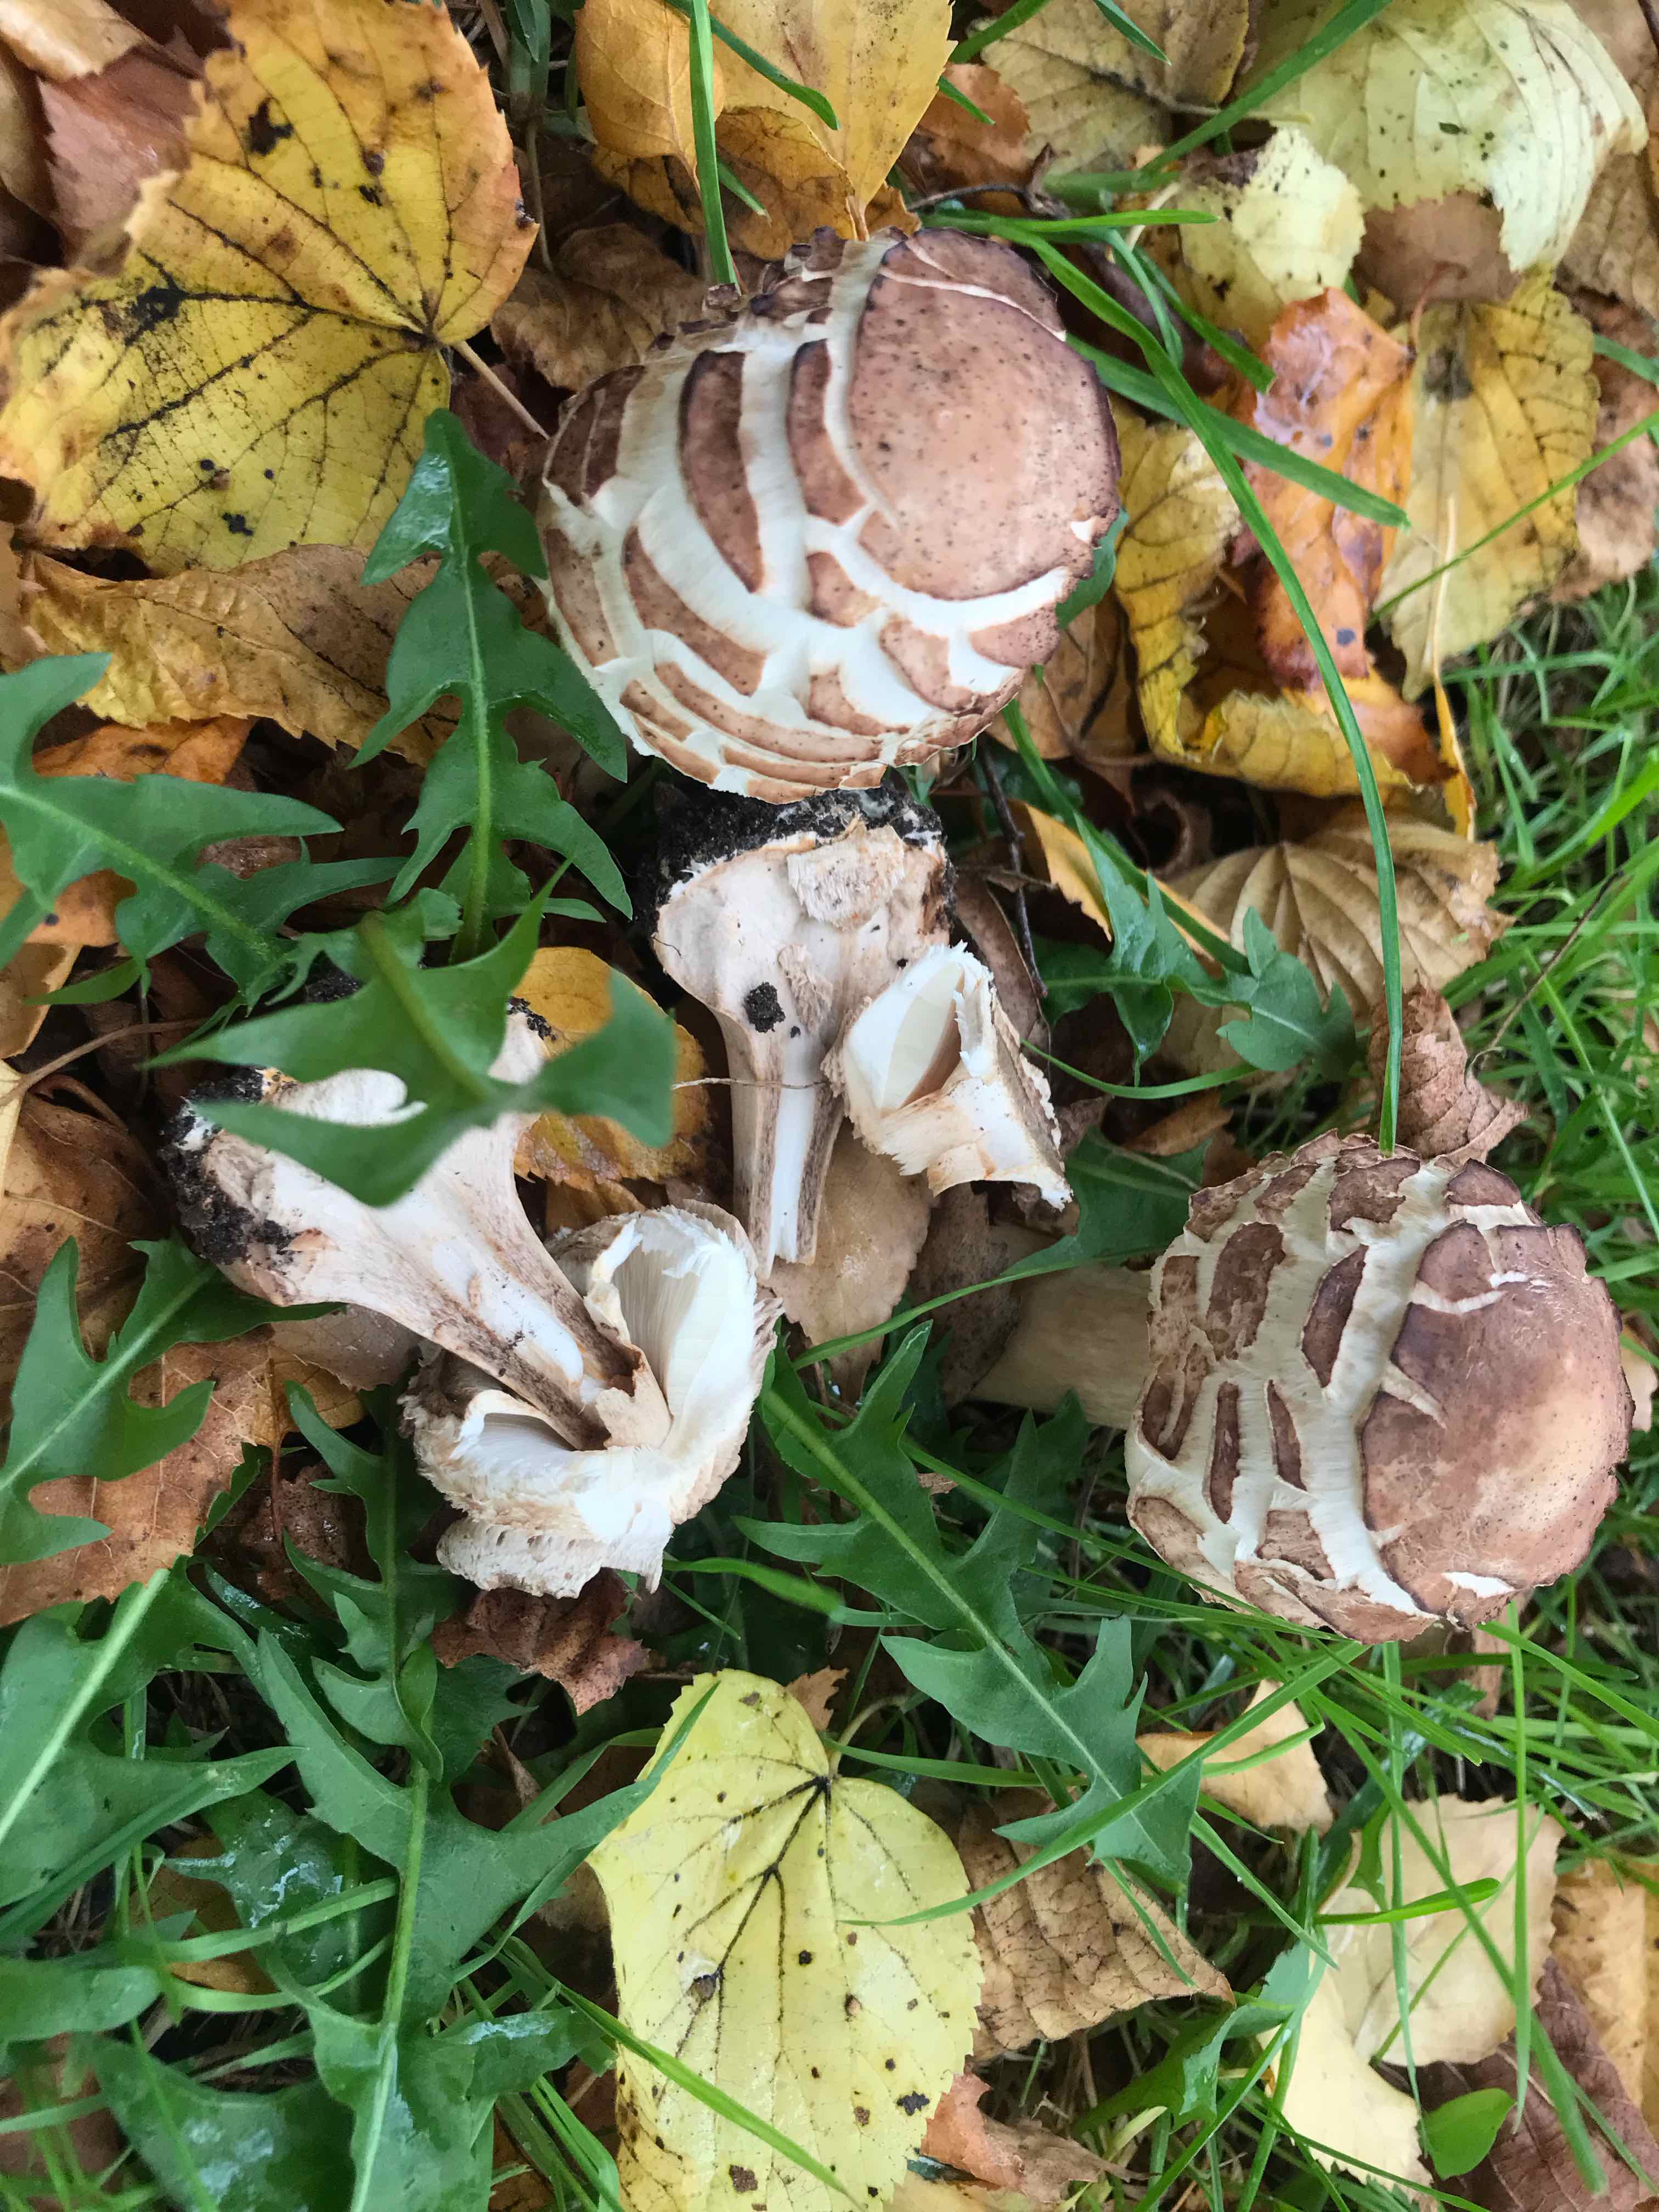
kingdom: Fungi
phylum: Basidiomycota
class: Agaricomycetes
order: Agaricales
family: Agaricaceae
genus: Chlorophyllum
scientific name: Chlorophyllum brunneum
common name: giftig rabarberhat
